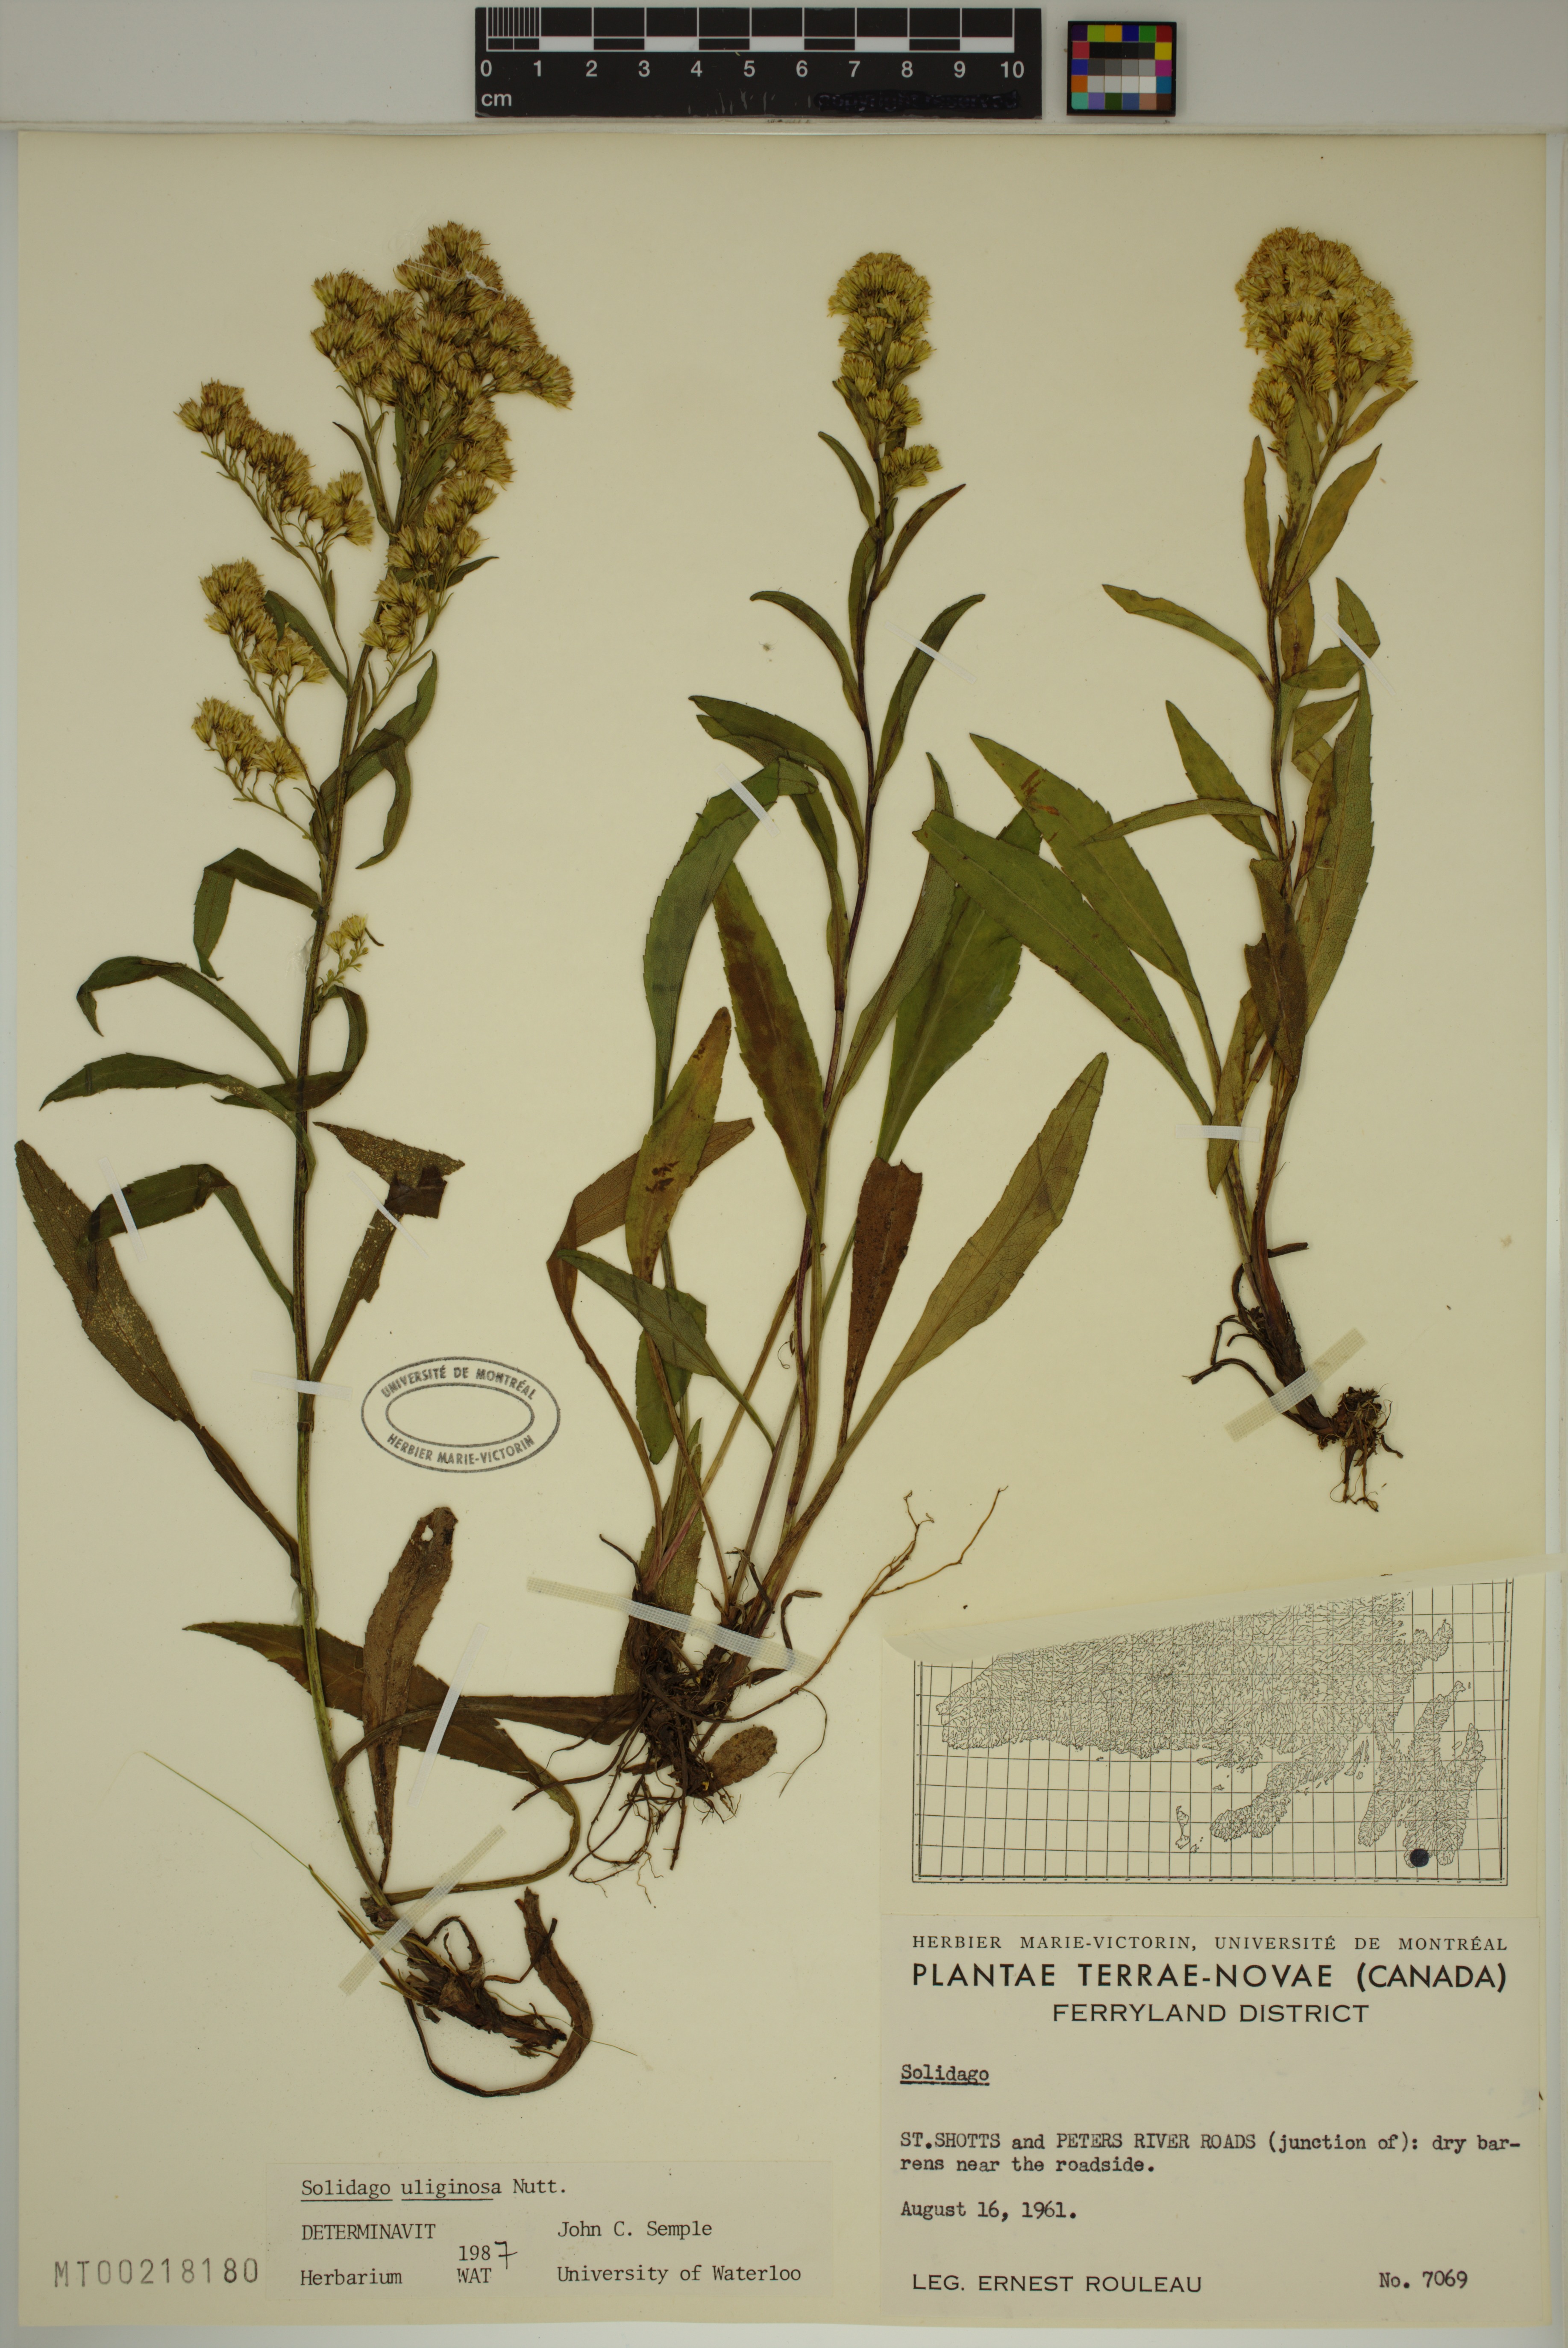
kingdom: Plantae
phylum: Tracheophyta
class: Magnoliopsida
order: Asterales
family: Asteraceae
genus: Solidago
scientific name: Solidago uliginosa
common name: Bog goldenrod
